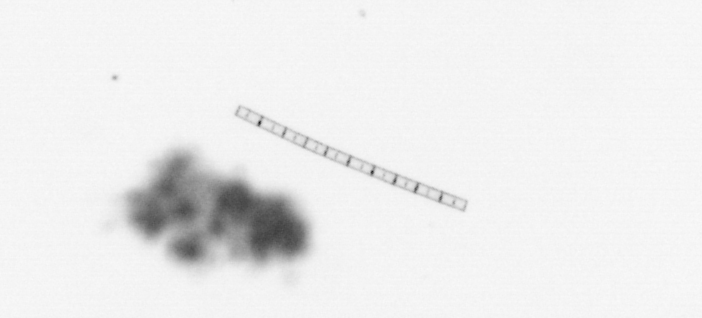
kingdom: Chromista
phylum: Ochrophyta
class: Bacillariophyceae
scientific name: Bacillariophyceae
